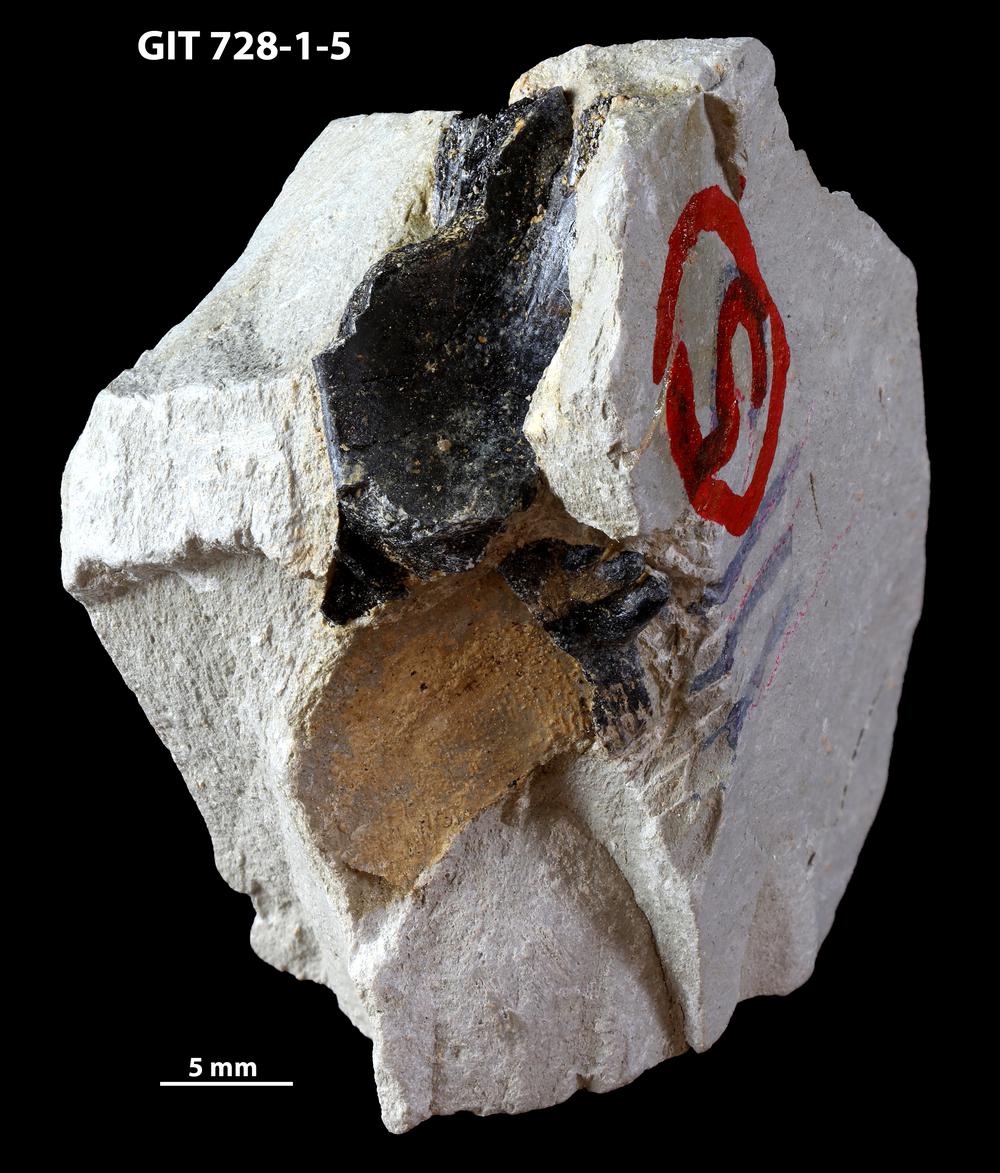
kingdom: Animalia
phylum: Chordata
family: Coccosteidae
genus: Watsonosteus
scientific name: Watsonosteus
